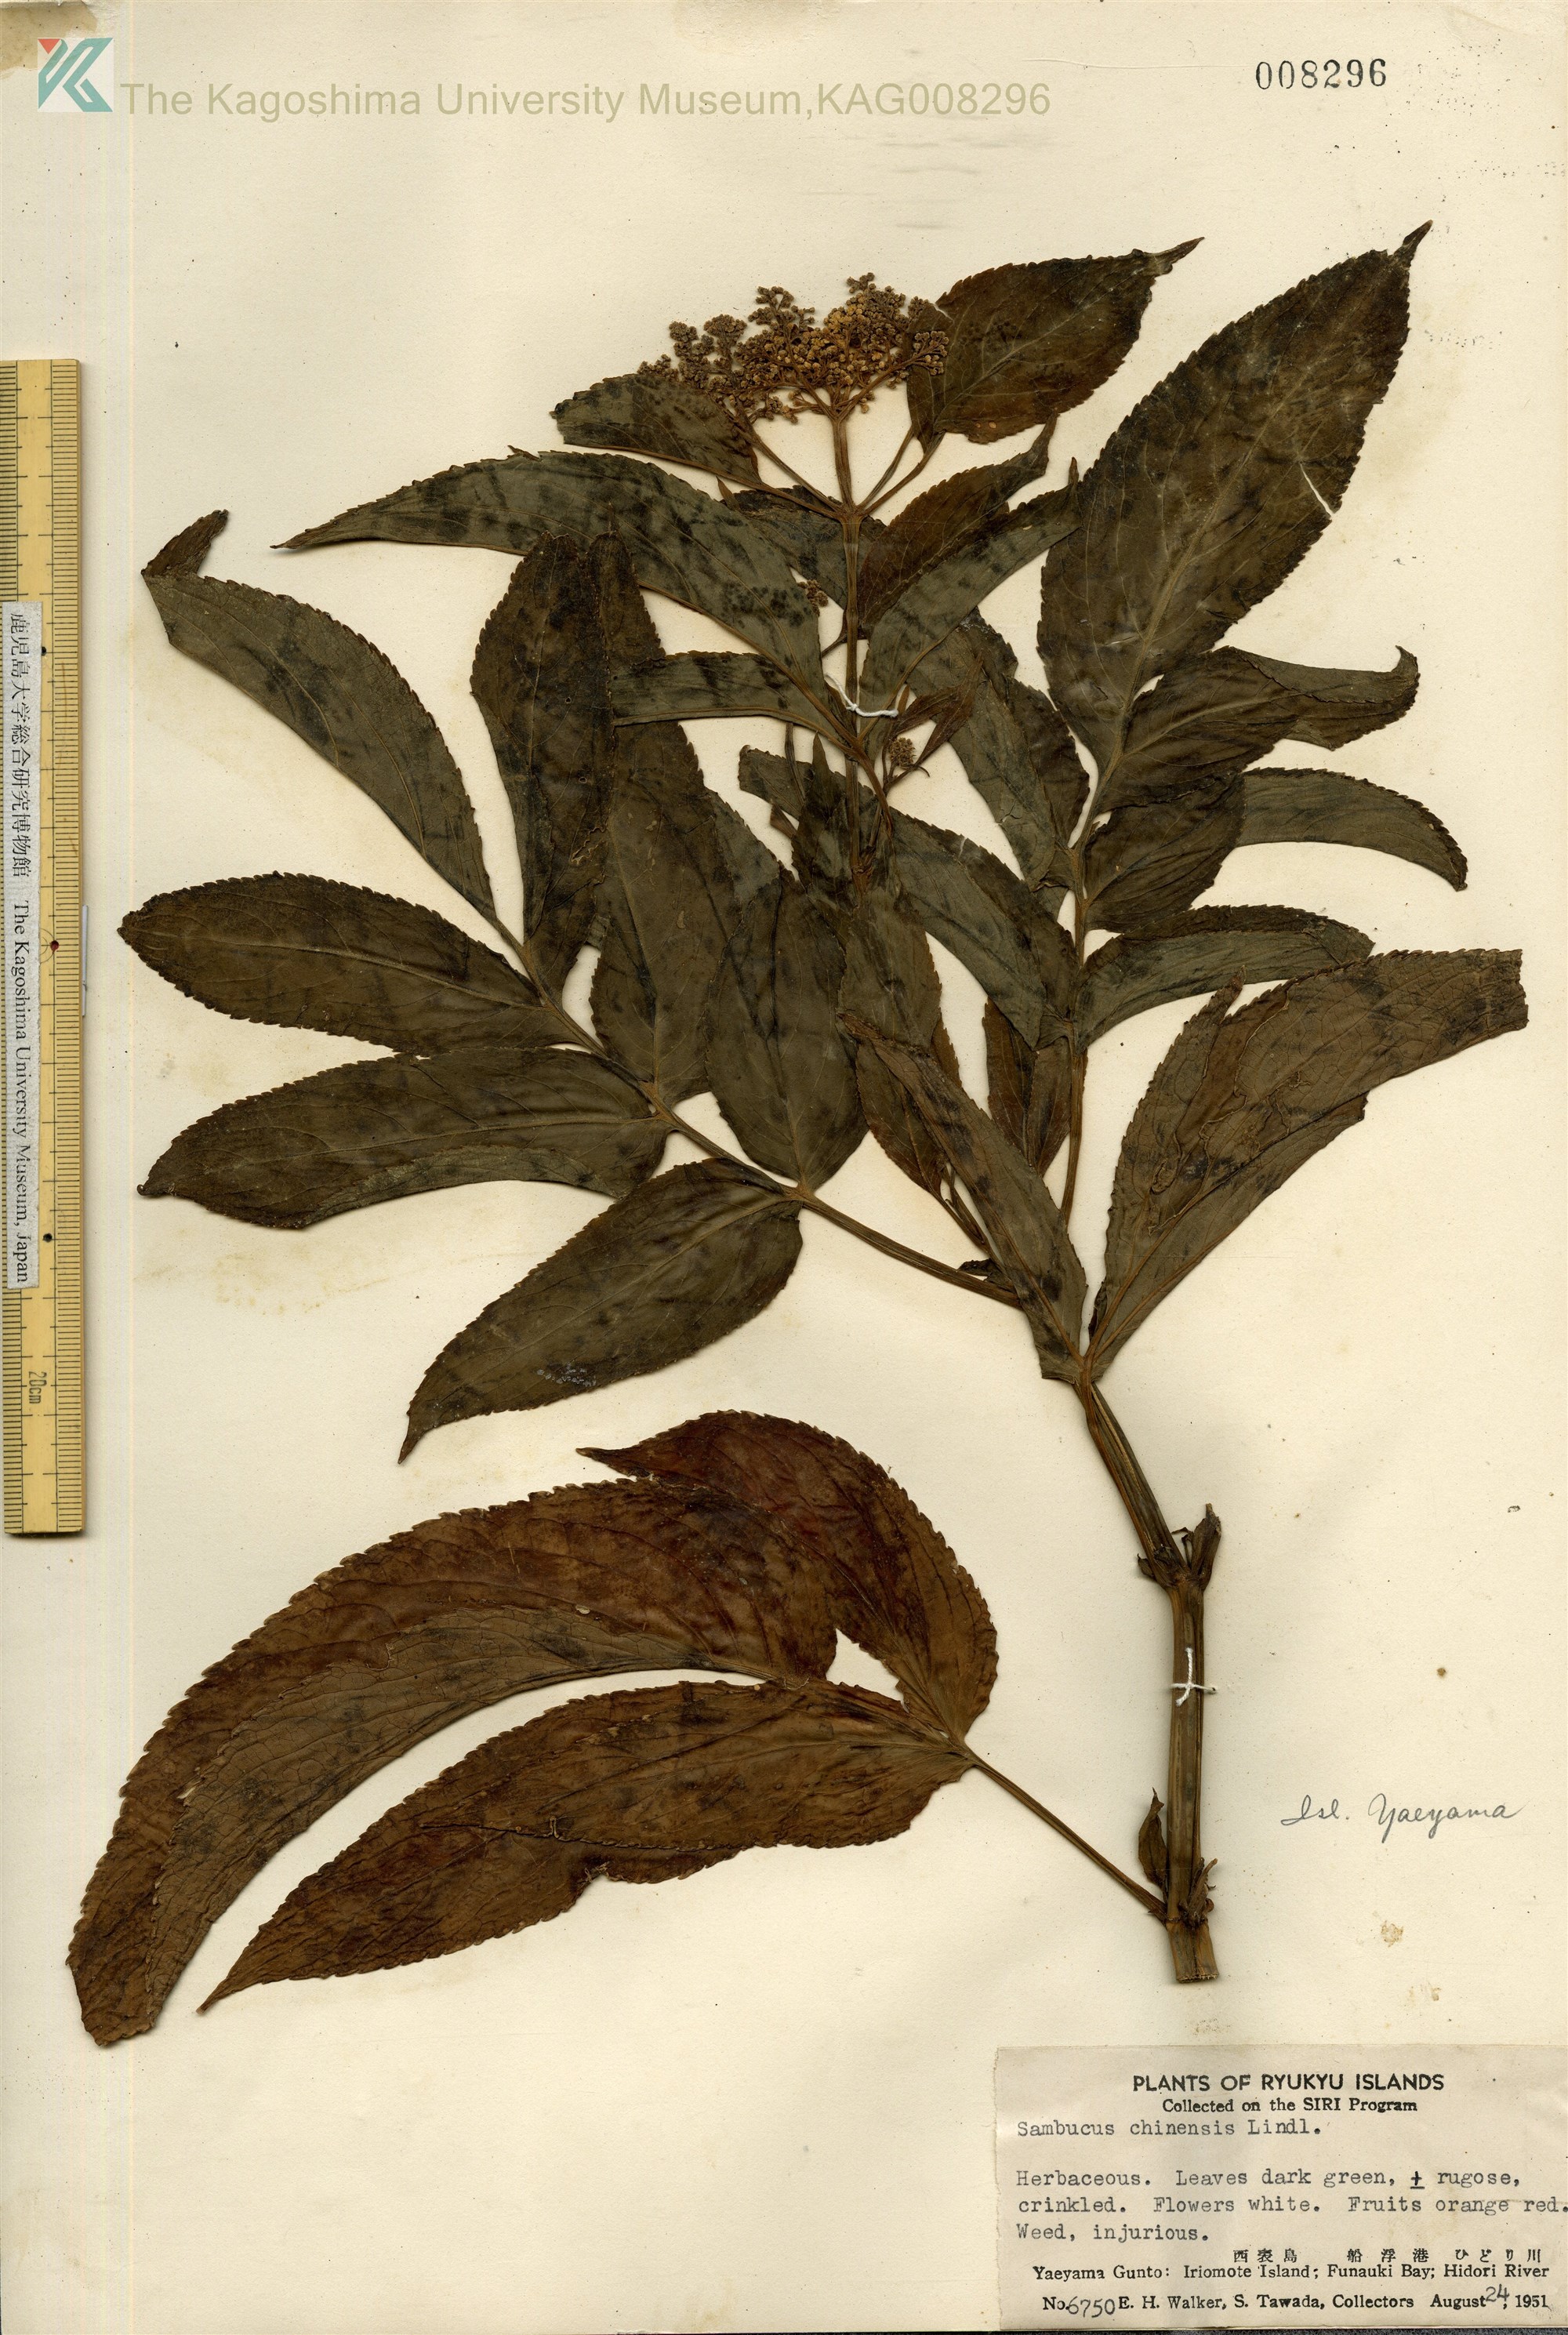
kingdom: Plantae
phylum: Tracheophyta
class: Magnoliopsida
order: Dipsacales
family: Viburnaceae
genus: Sambucus
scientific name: Sambucus javanica
